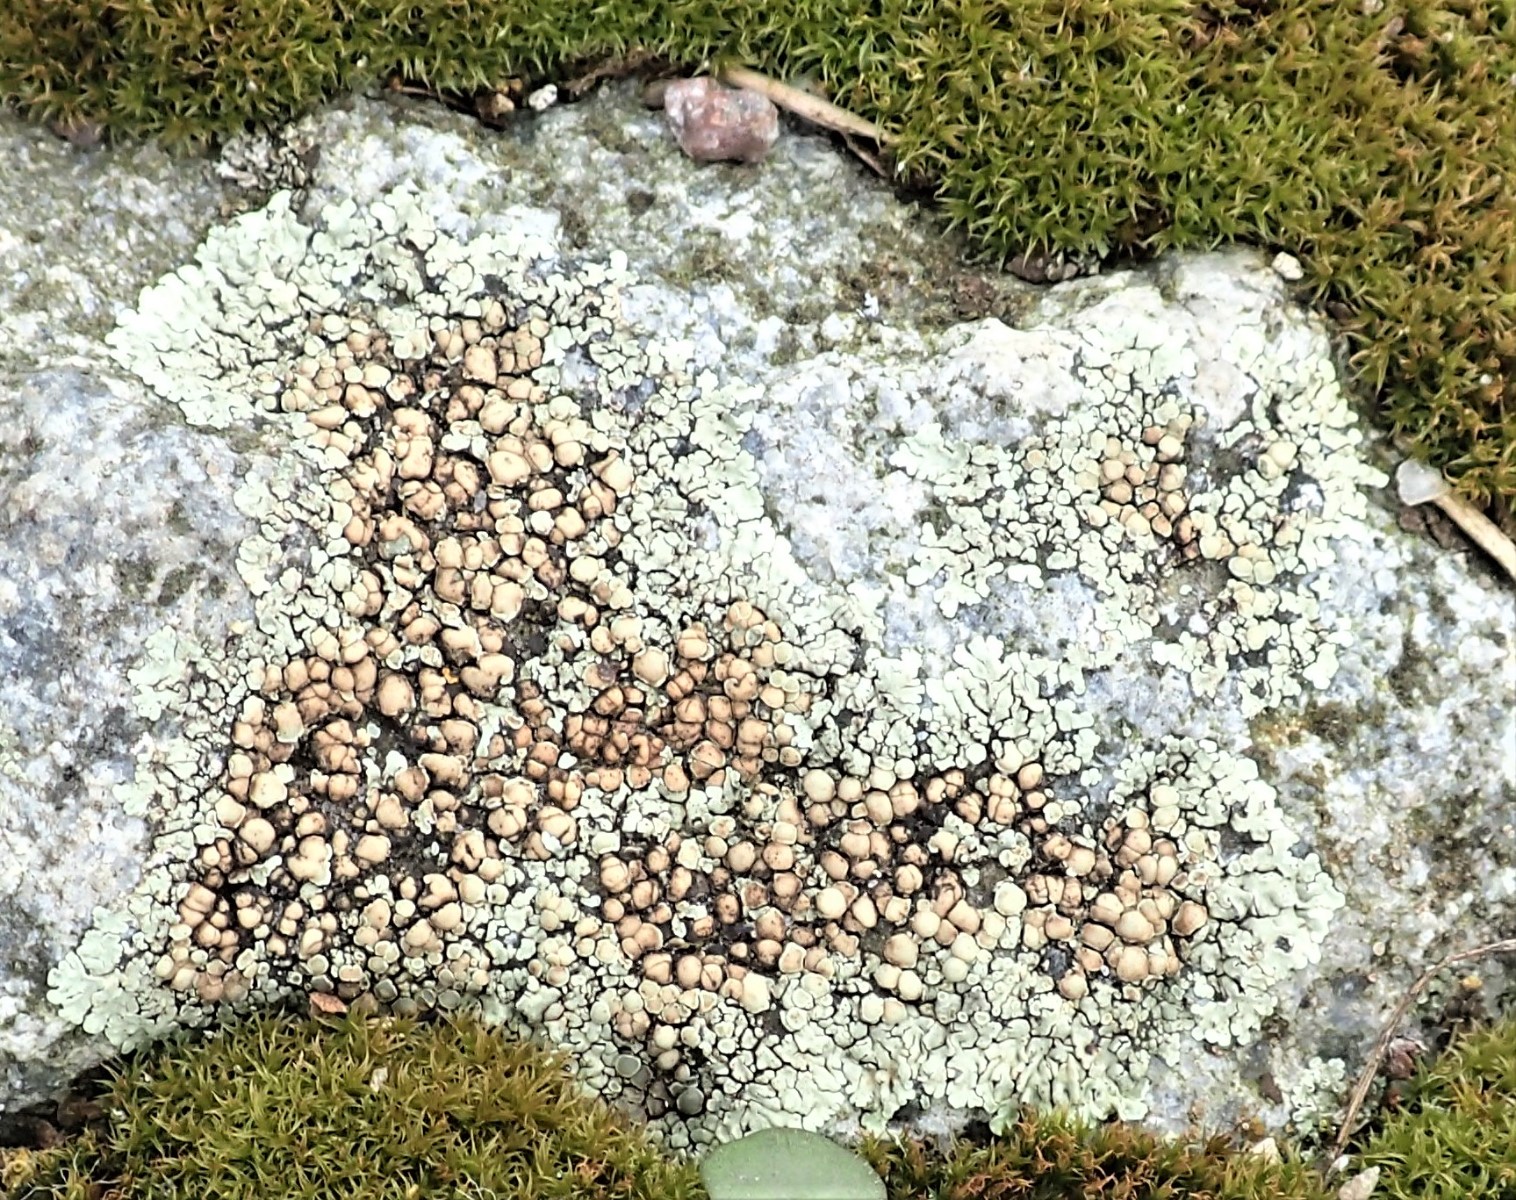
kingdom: Fungi
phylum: Ascomycota
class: Lecanoromycetes
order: Lecanorales
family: Lecanoraceae
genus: Protoparmeliopsis
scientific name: Protoparmeliopsis muralis
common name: randfliget kantskivelav
